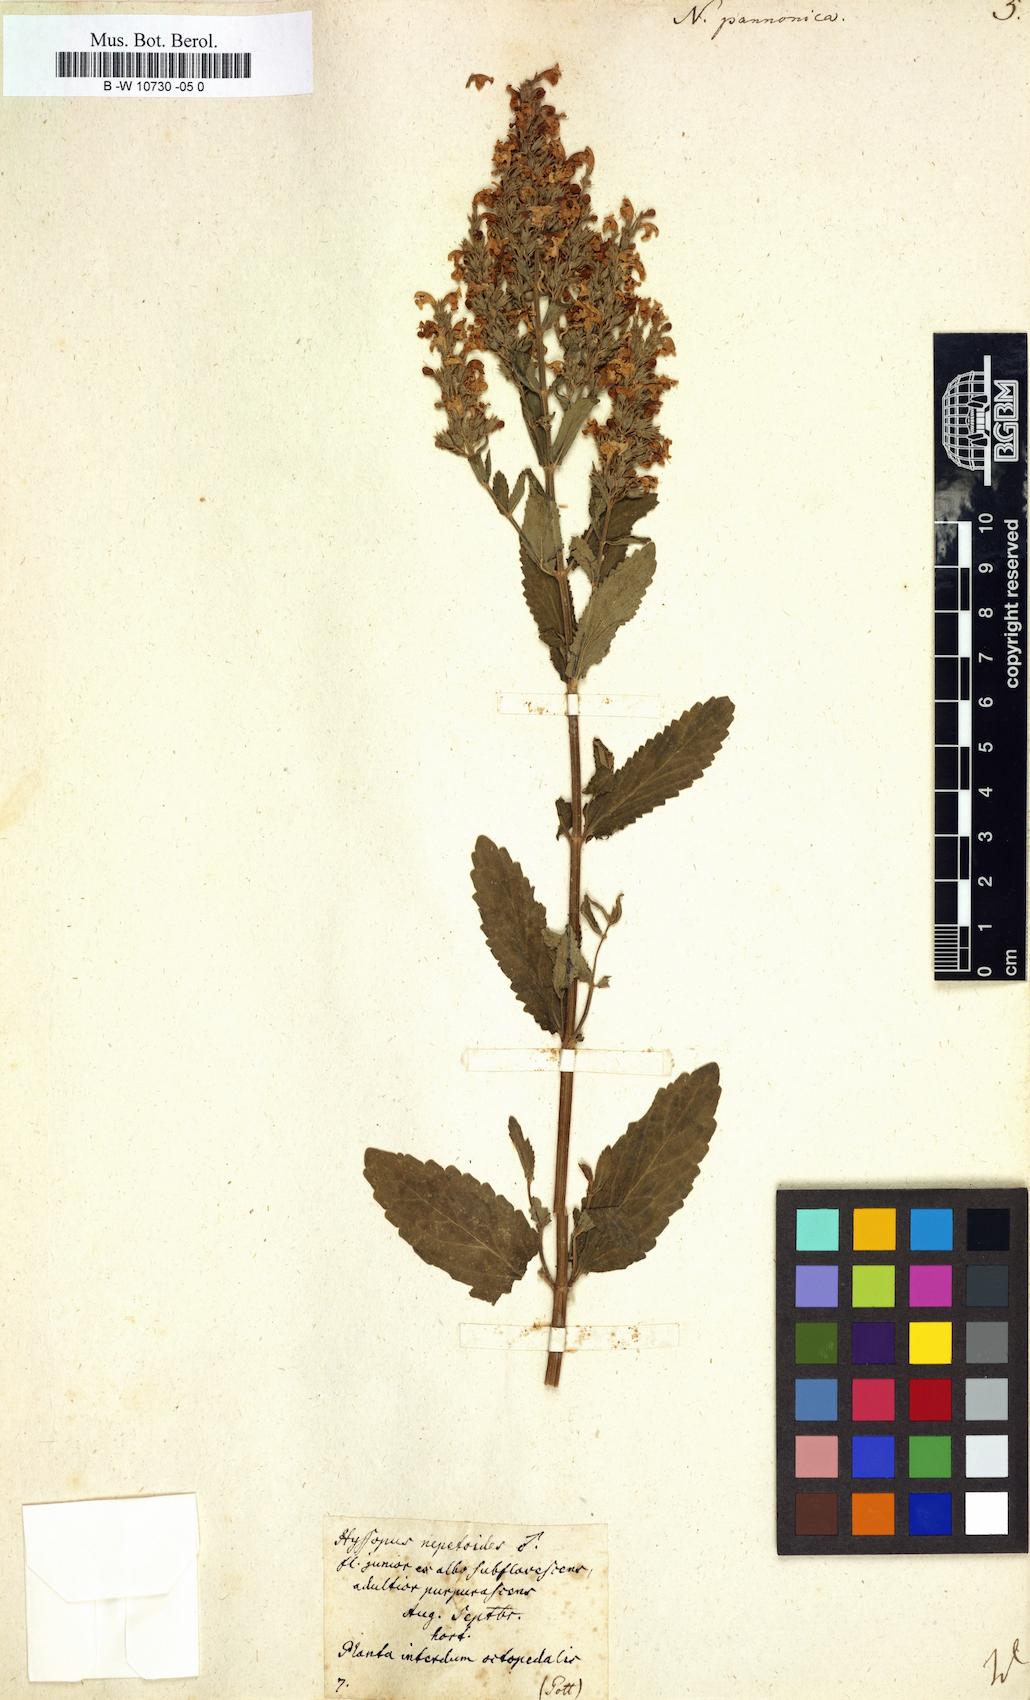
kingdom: Plantae
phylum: Tracheophyta
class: Magnoliopsida
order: Lamiales
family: Lamiaceae
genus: Nepeta
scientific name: Nepeta nuda
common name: Hairless catmint
